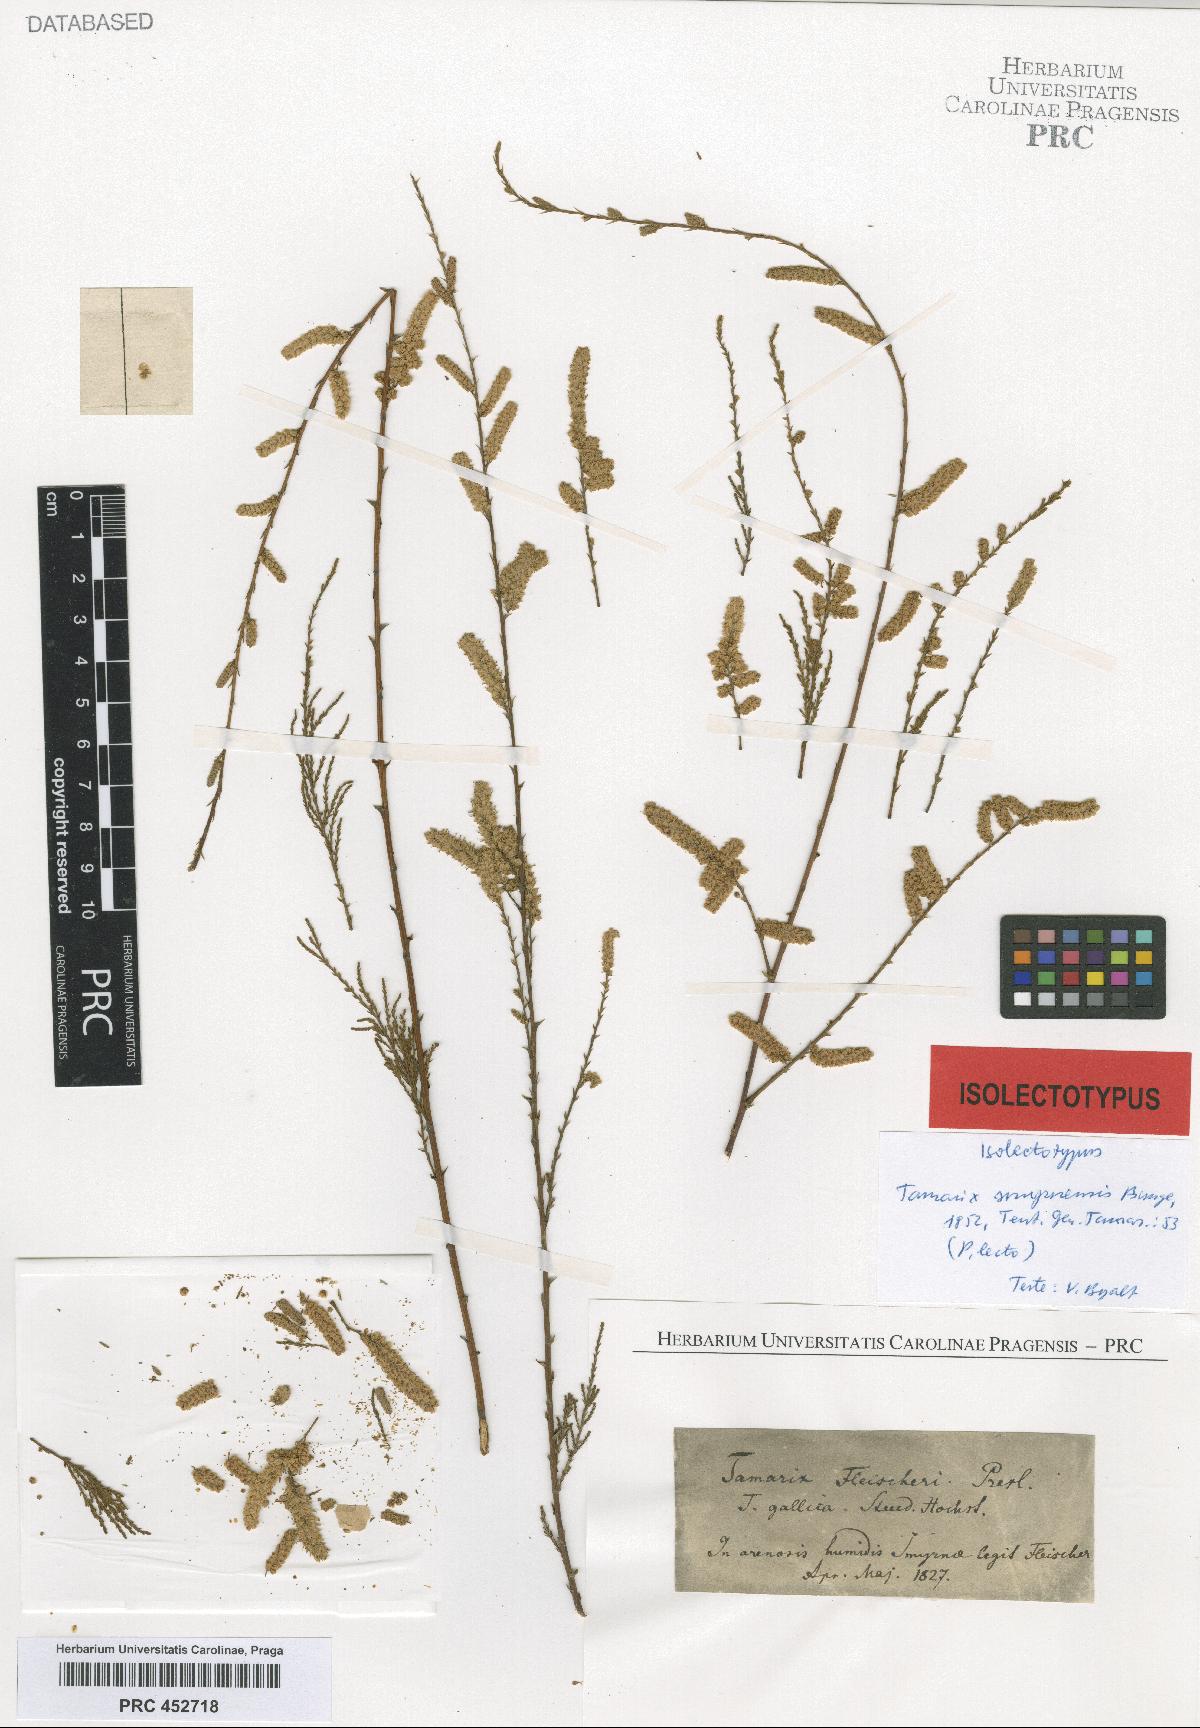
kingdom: Plantae
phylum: Tracheophyta
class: Magnoliopsida
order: Caryophyllales
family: Tamaricaceae
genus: Tamarix
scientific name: Tamarix smyrnensis
